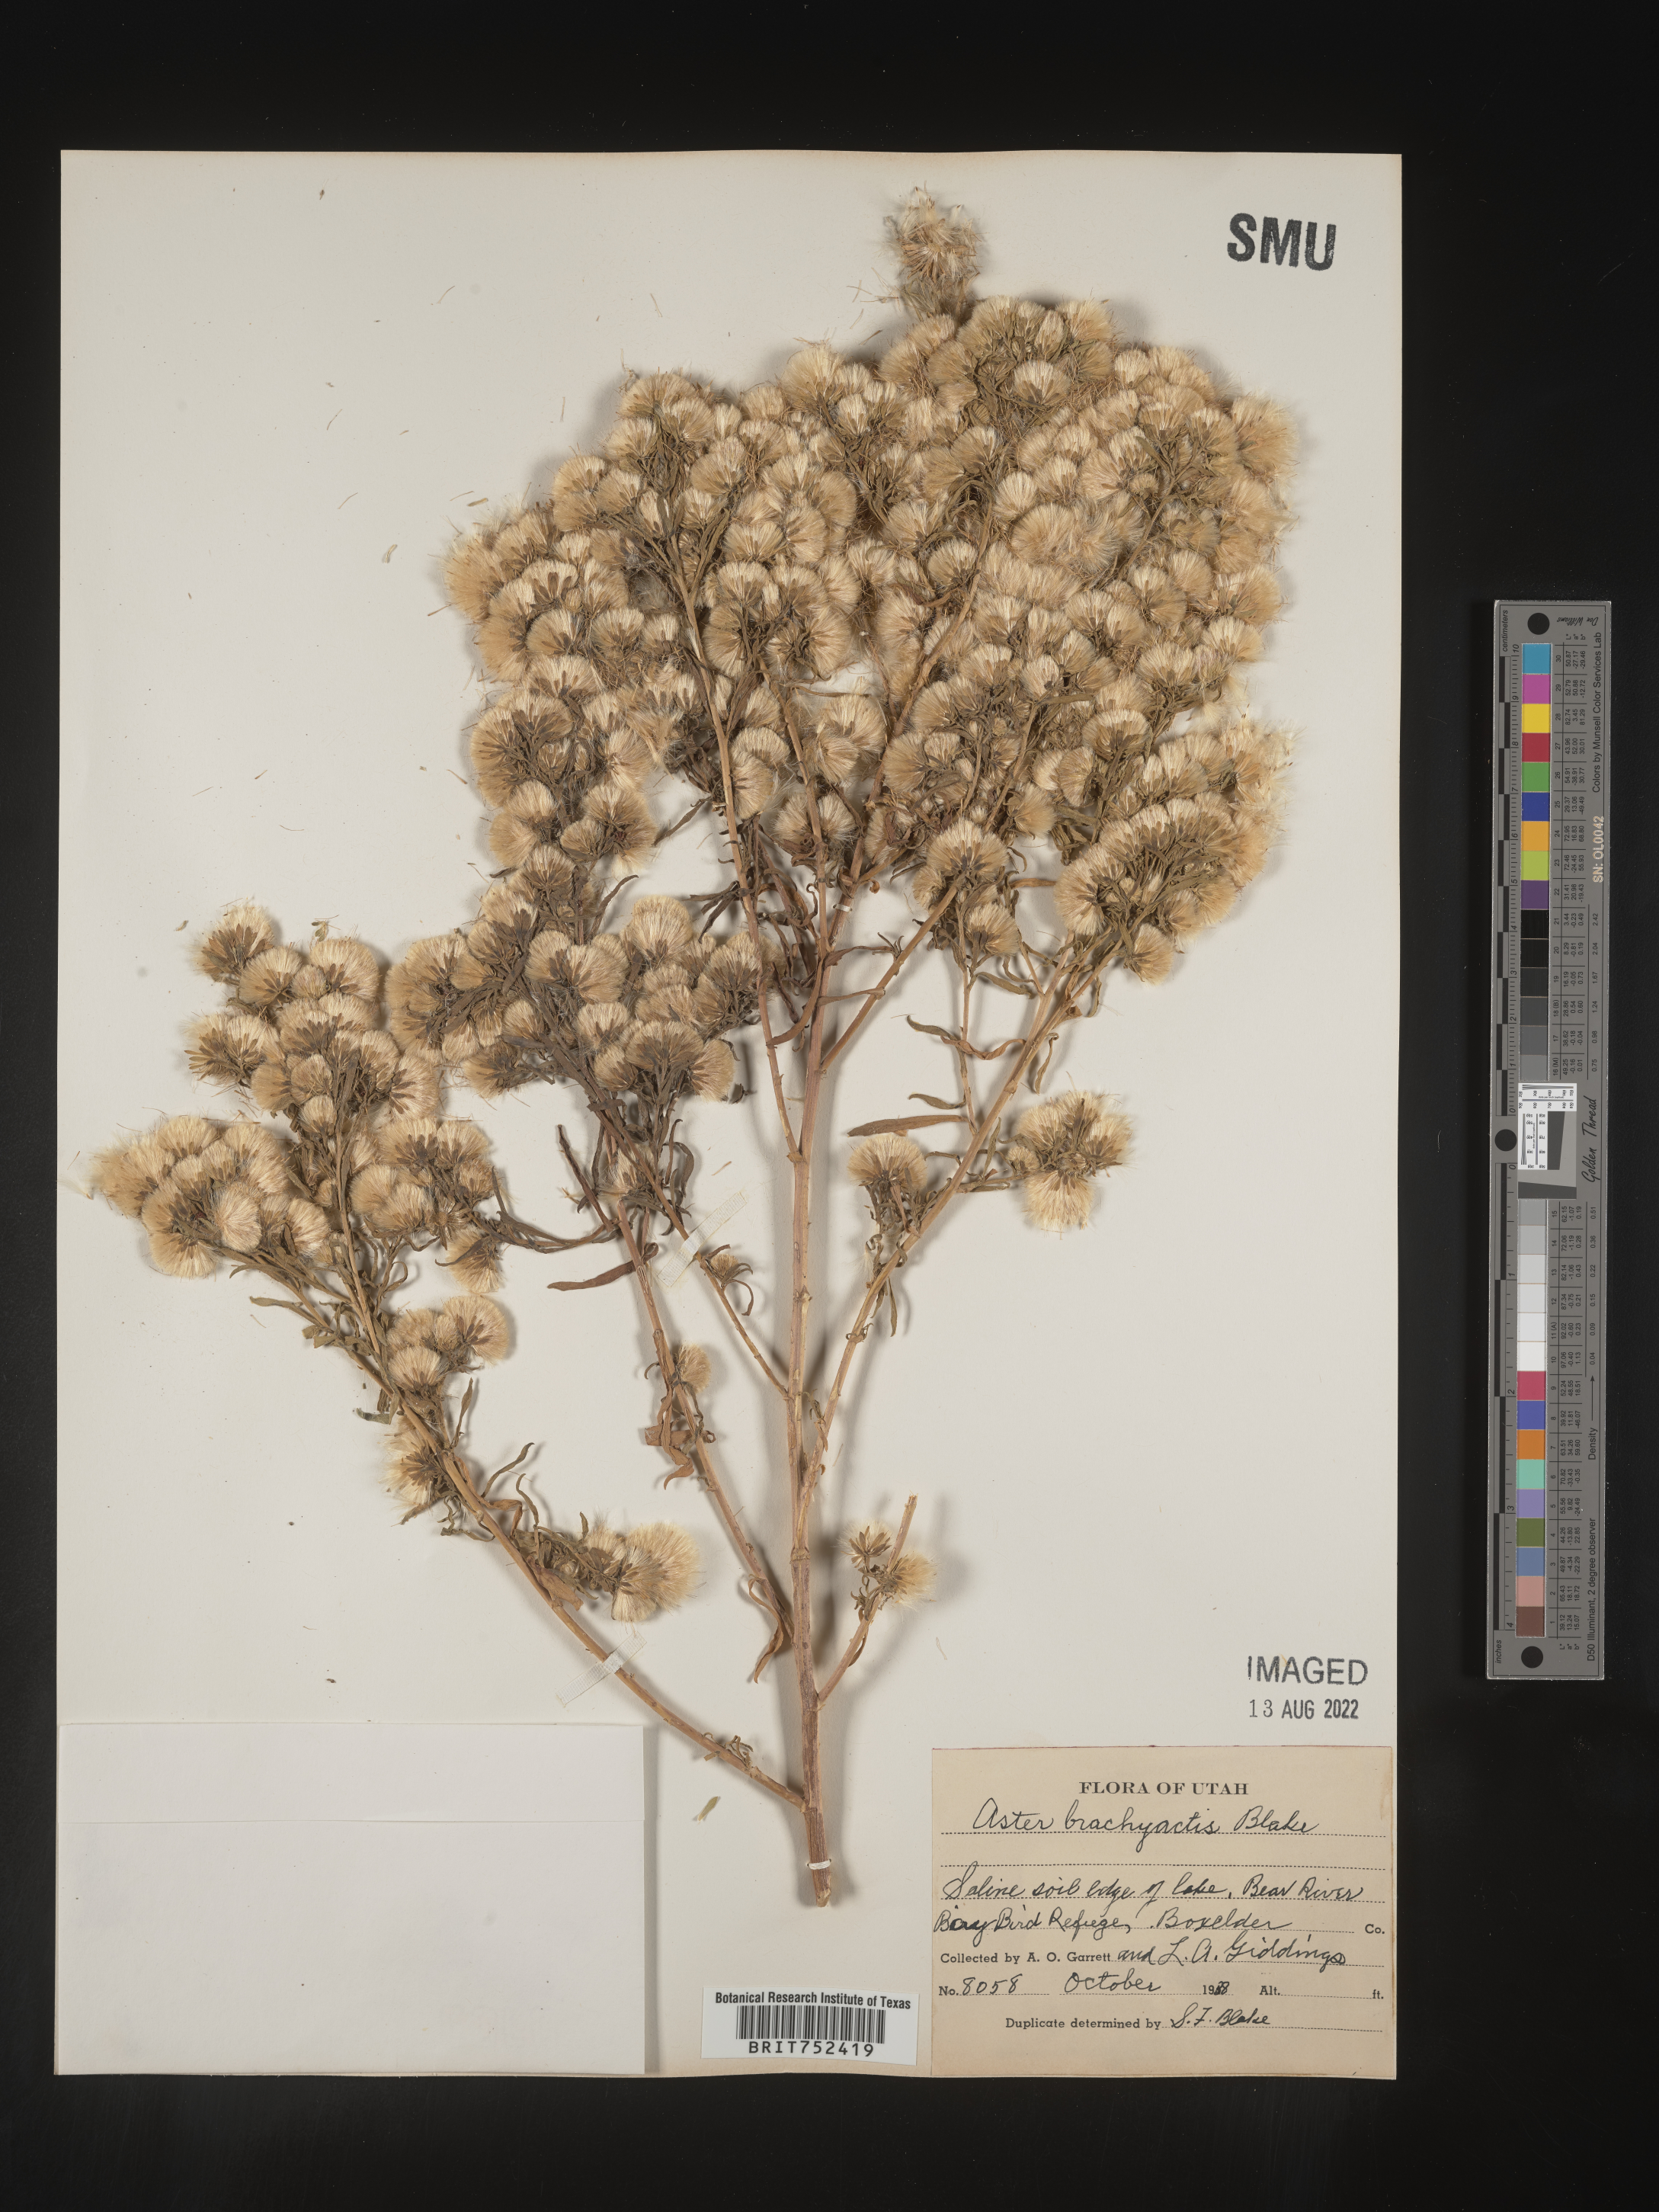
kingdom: Plantae
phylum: Tracheophyta
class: Magnoliopsida
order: Asterales
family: Asteraceae
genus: Symphyotrichum
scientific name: Symphyotrichum frondosum
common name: Leafy aster
